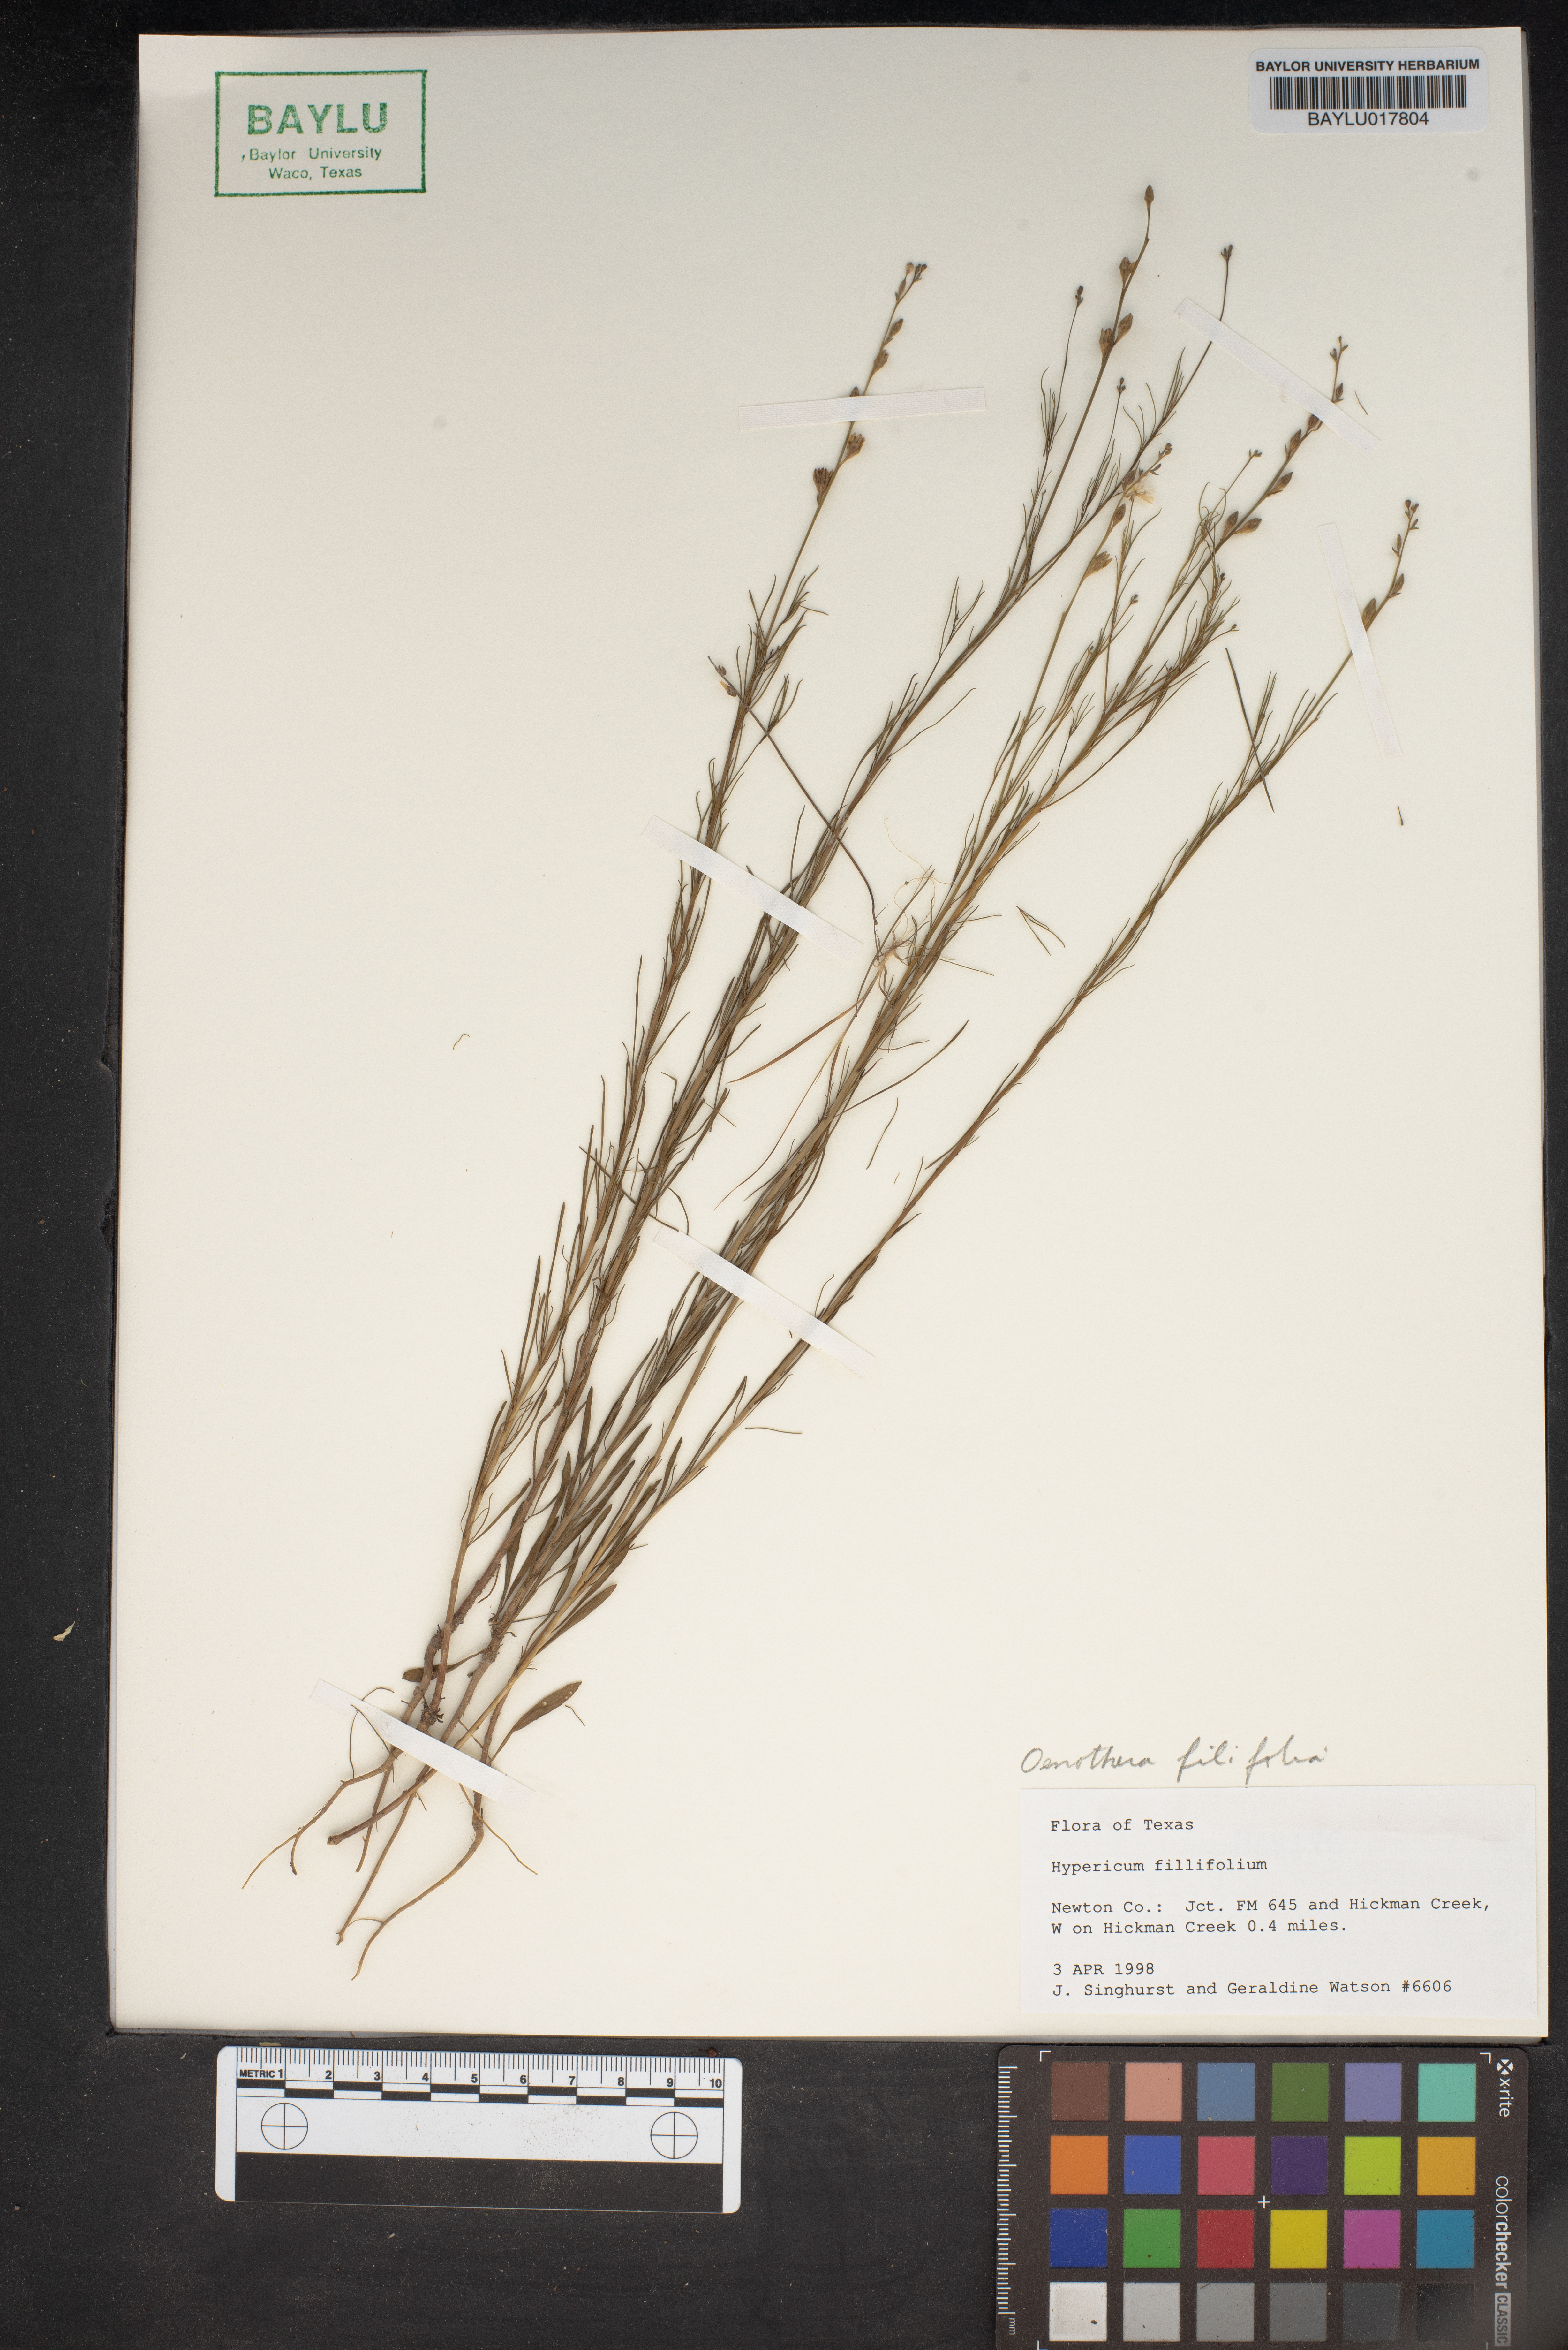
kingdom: Plantae
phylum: Tracheophyta
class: Magnoliopsida
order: Malpighiales
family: Hypericaceae
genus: Hypericum
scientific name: Hypericum
